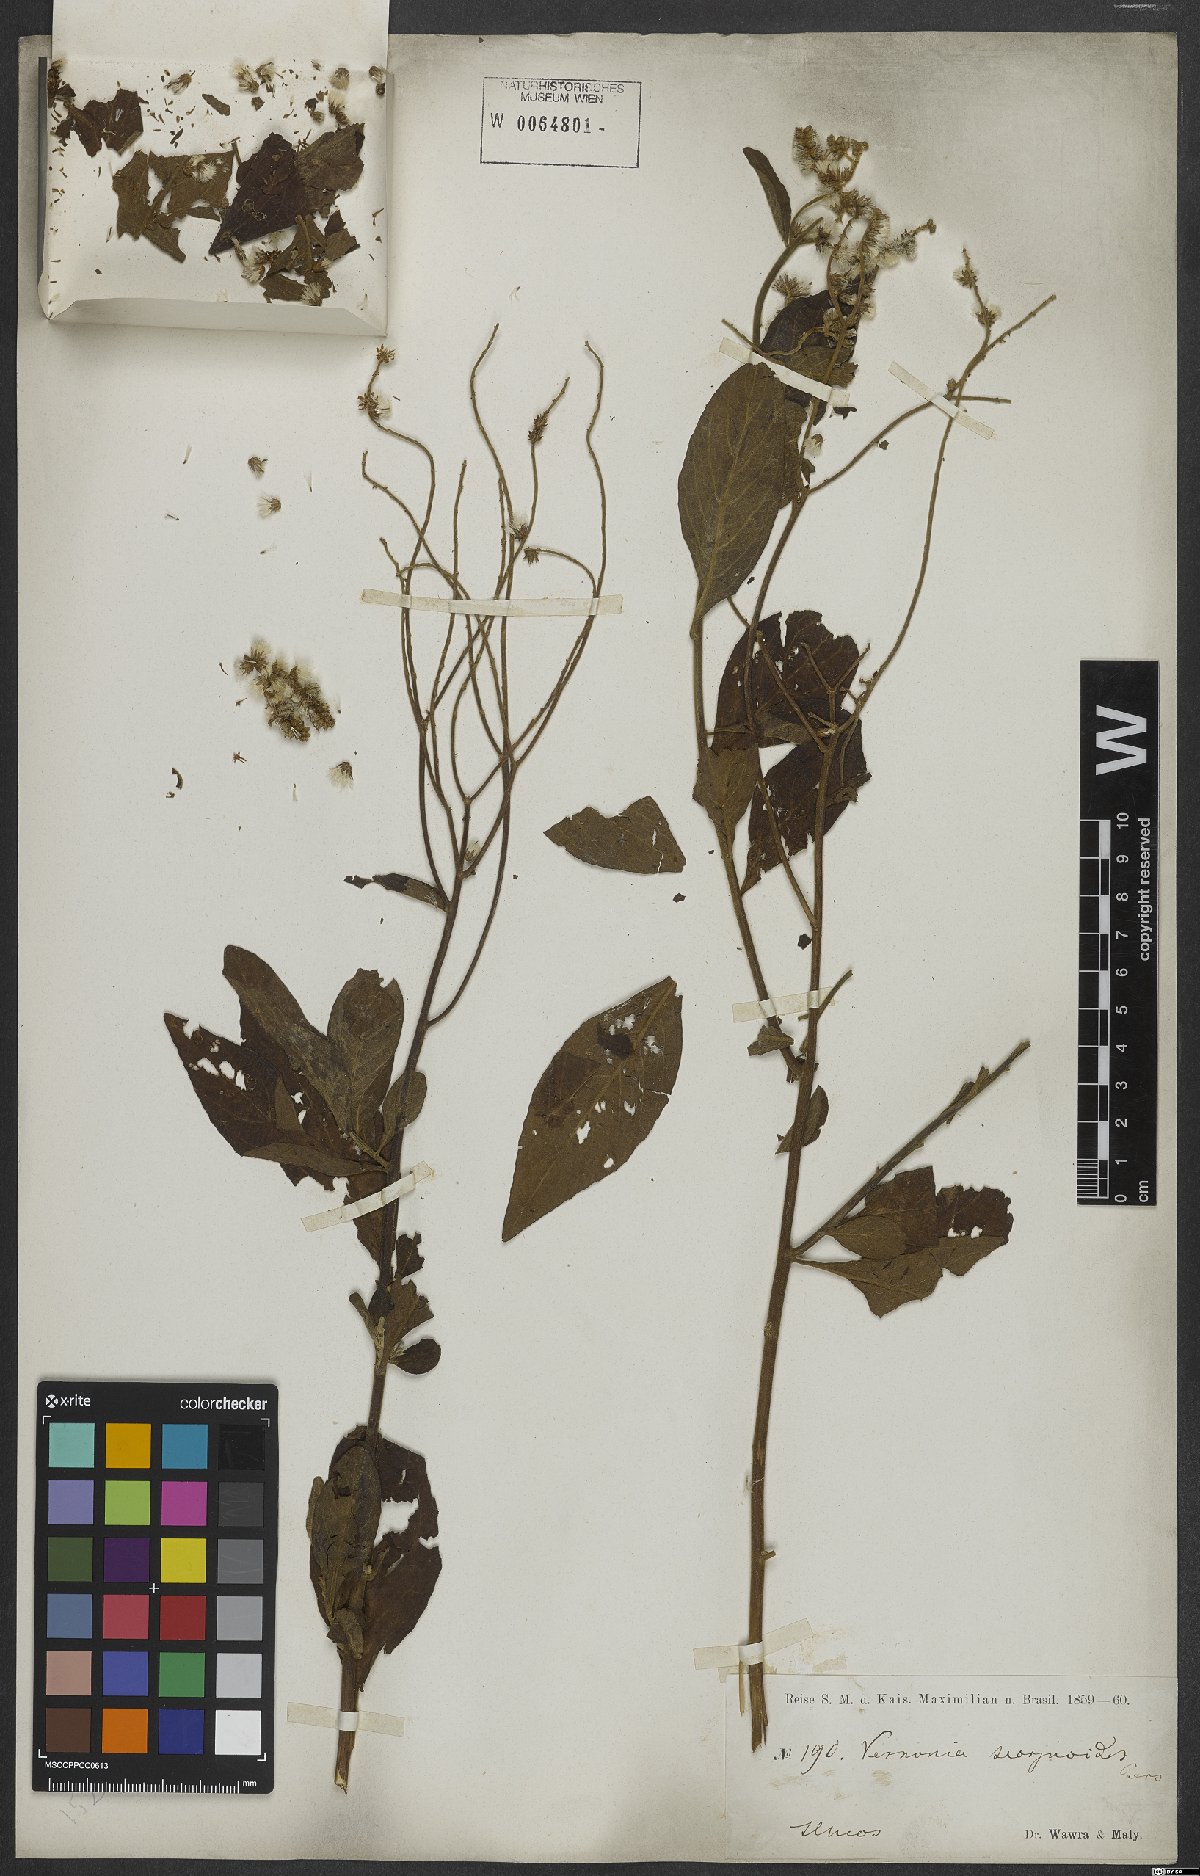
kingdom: Plantae
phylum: Tracheophyta
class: Magnoliopsida
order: Asterales
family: Asteraceae
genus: Cyrtocymura
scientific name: Cyrtocymura scorpioides
